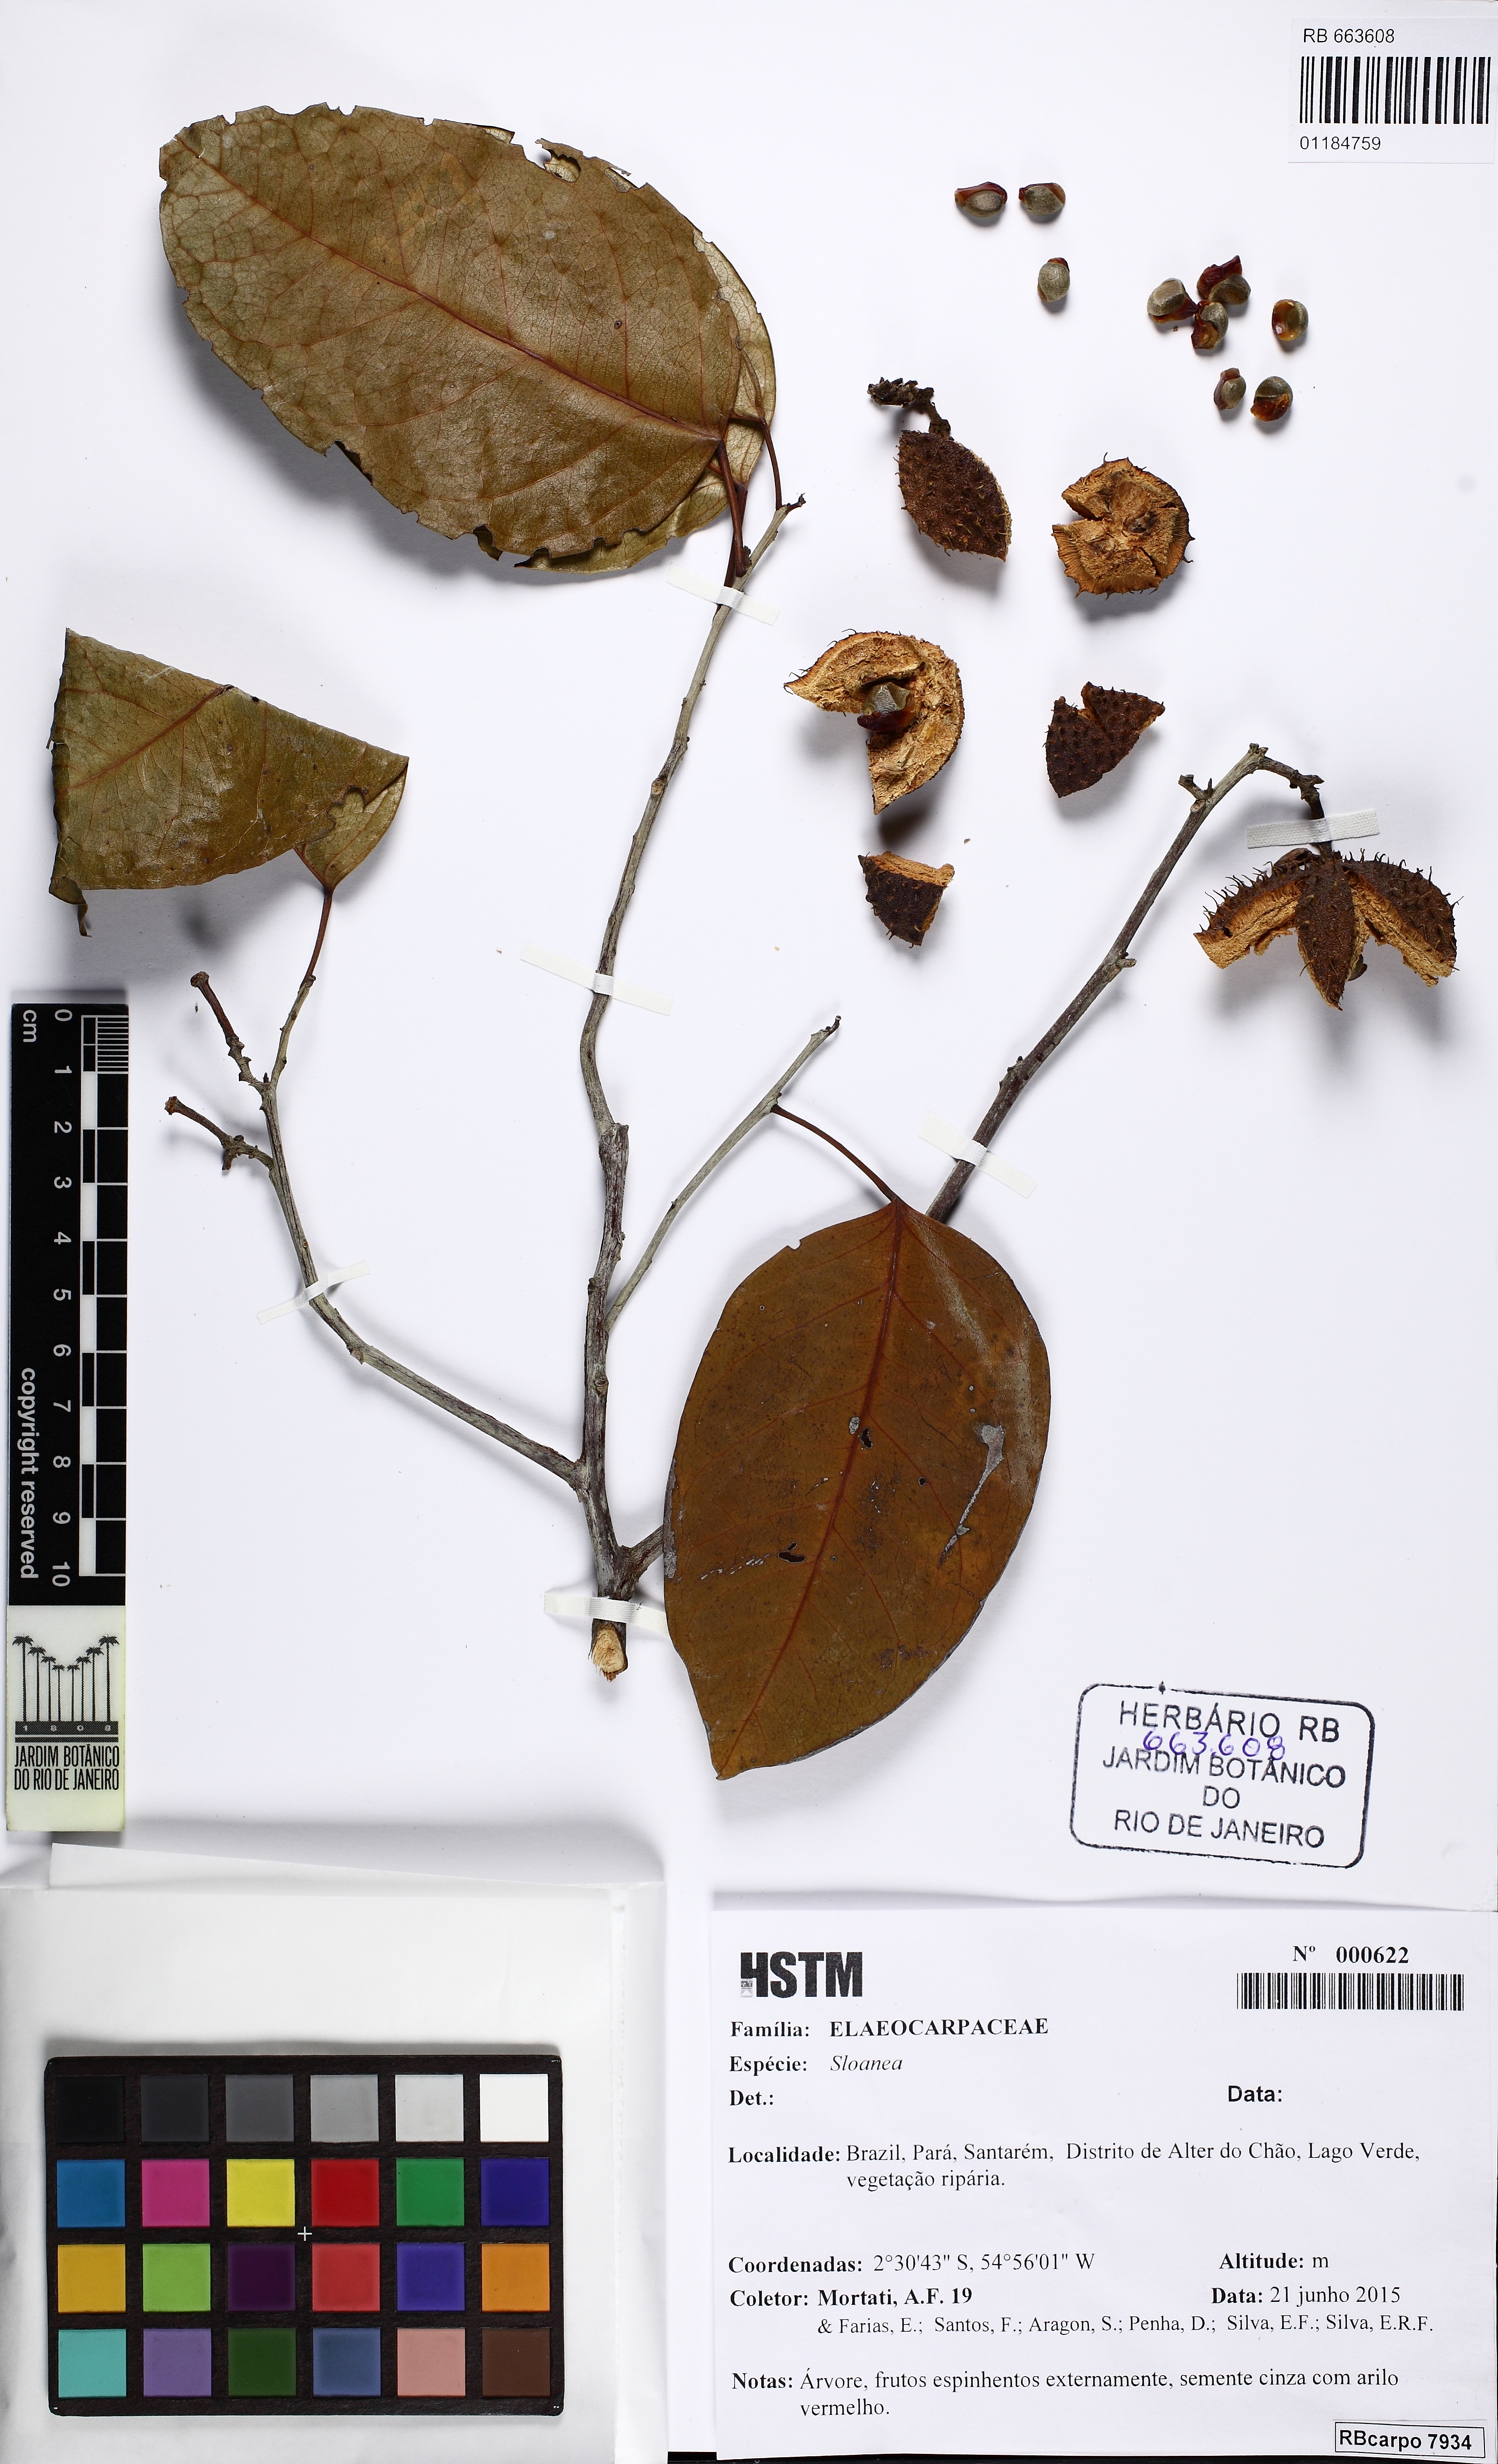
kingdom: Plantae
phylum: Tracheophyta
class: Magnoliopsida
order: Oxalidales
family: Elaeocarpaceae
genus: Sloanea
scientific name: Sloanea
